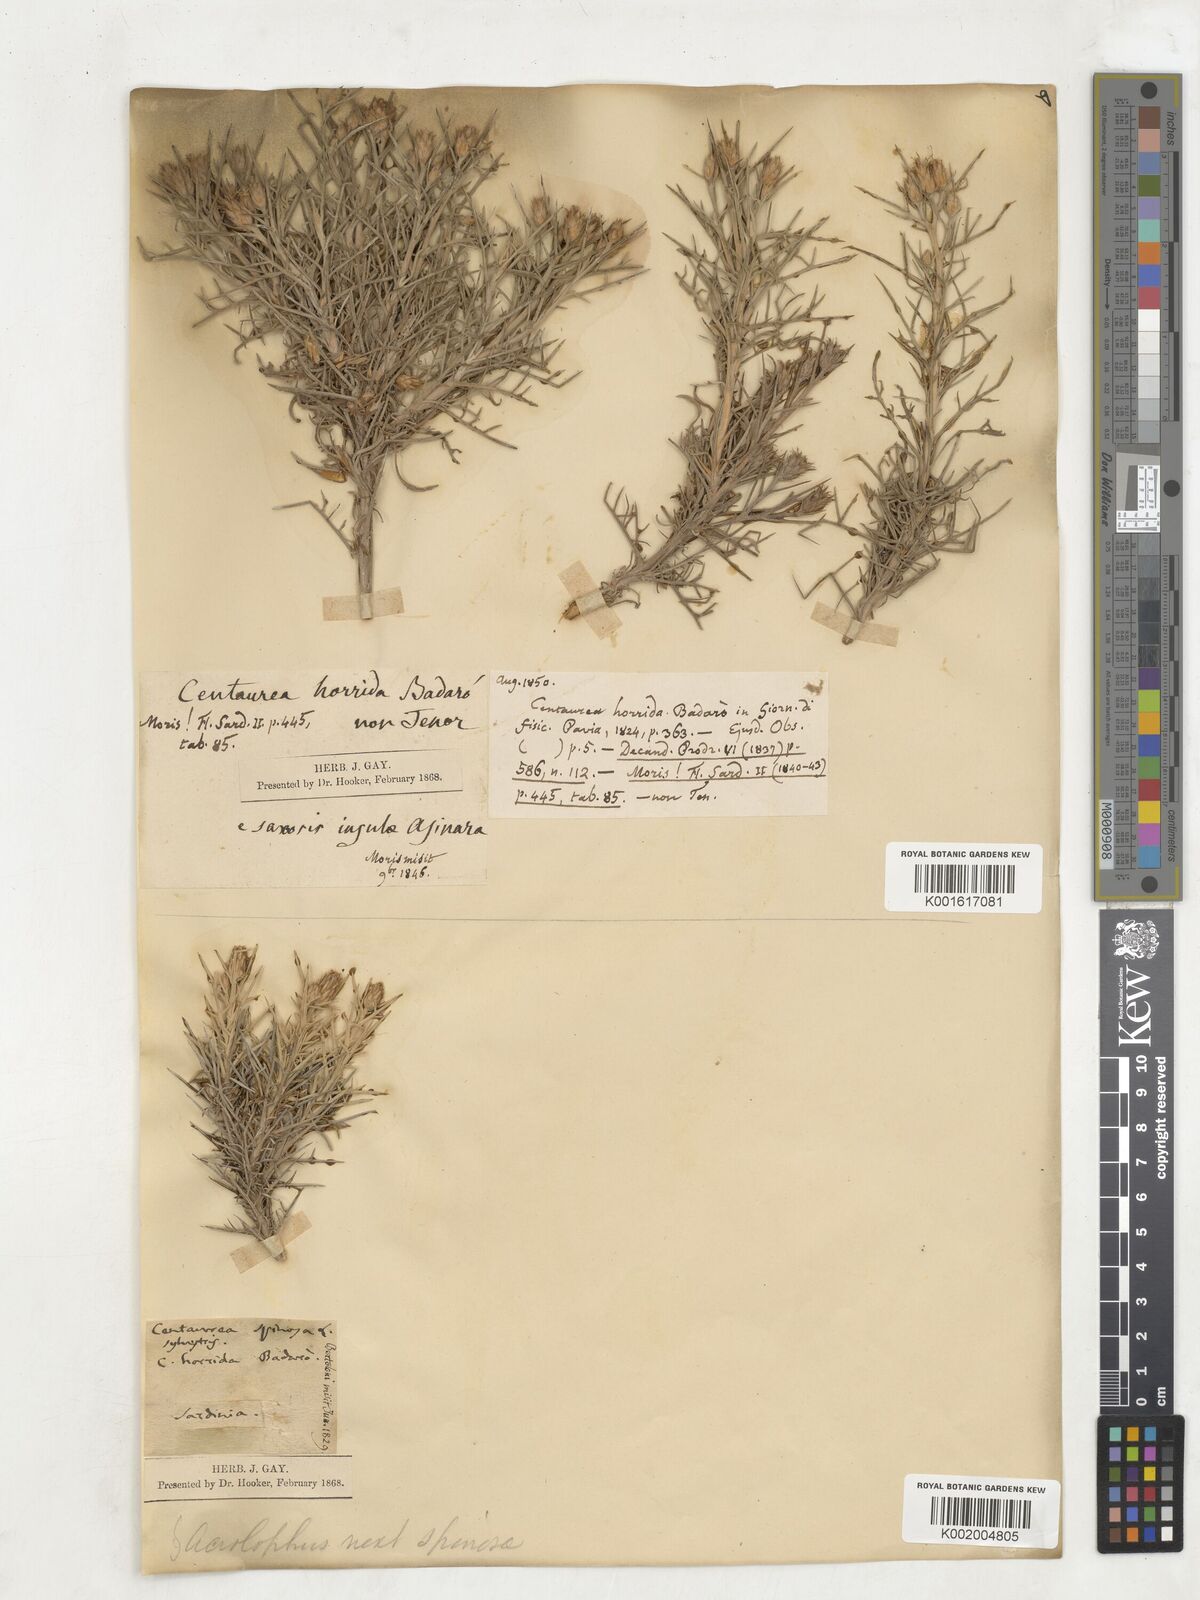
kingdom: Plantae
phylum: Tracheophyta
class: Magnoliopsida
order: Asterales
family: Asteraceae
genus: Centaurea
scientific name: Centaurea horrida
